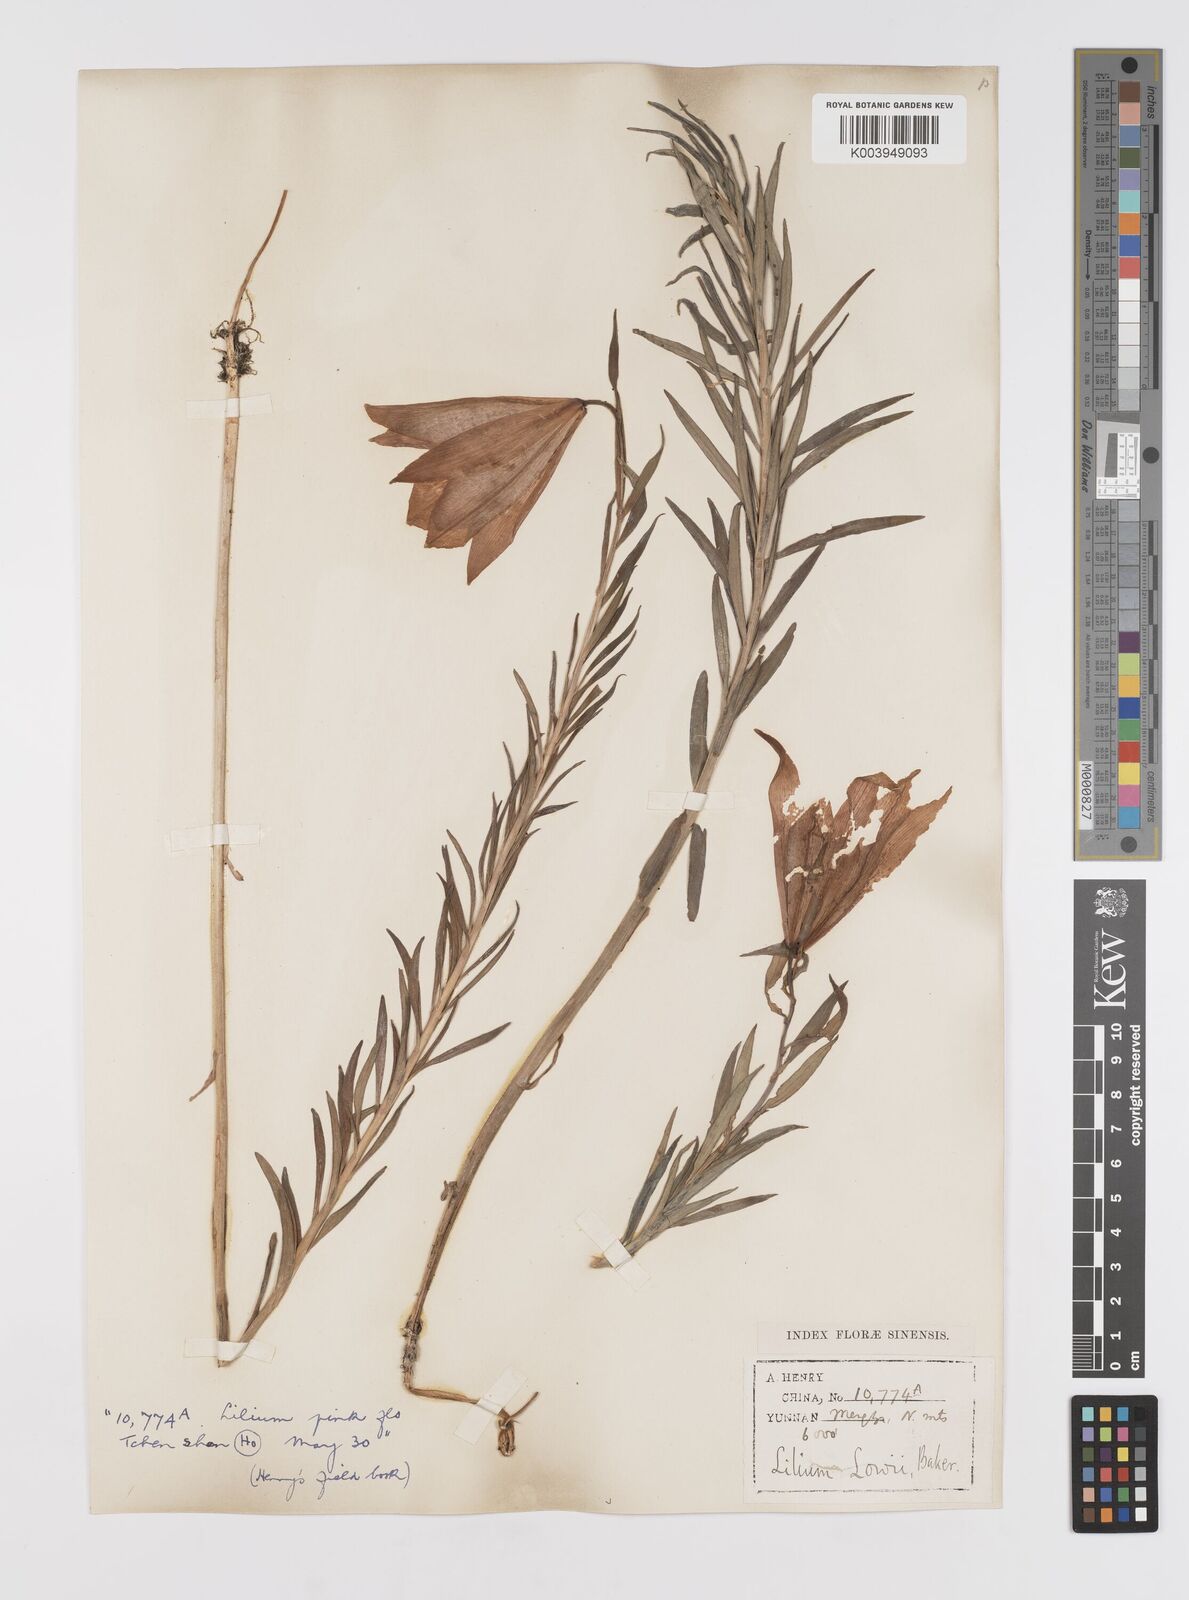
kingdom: Plantae
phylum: Tracheophyta
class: Liliopsida
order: Liliales
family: Liliaceae
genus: Lilium
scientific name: Lilium bakerianum
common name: Baker's lily
